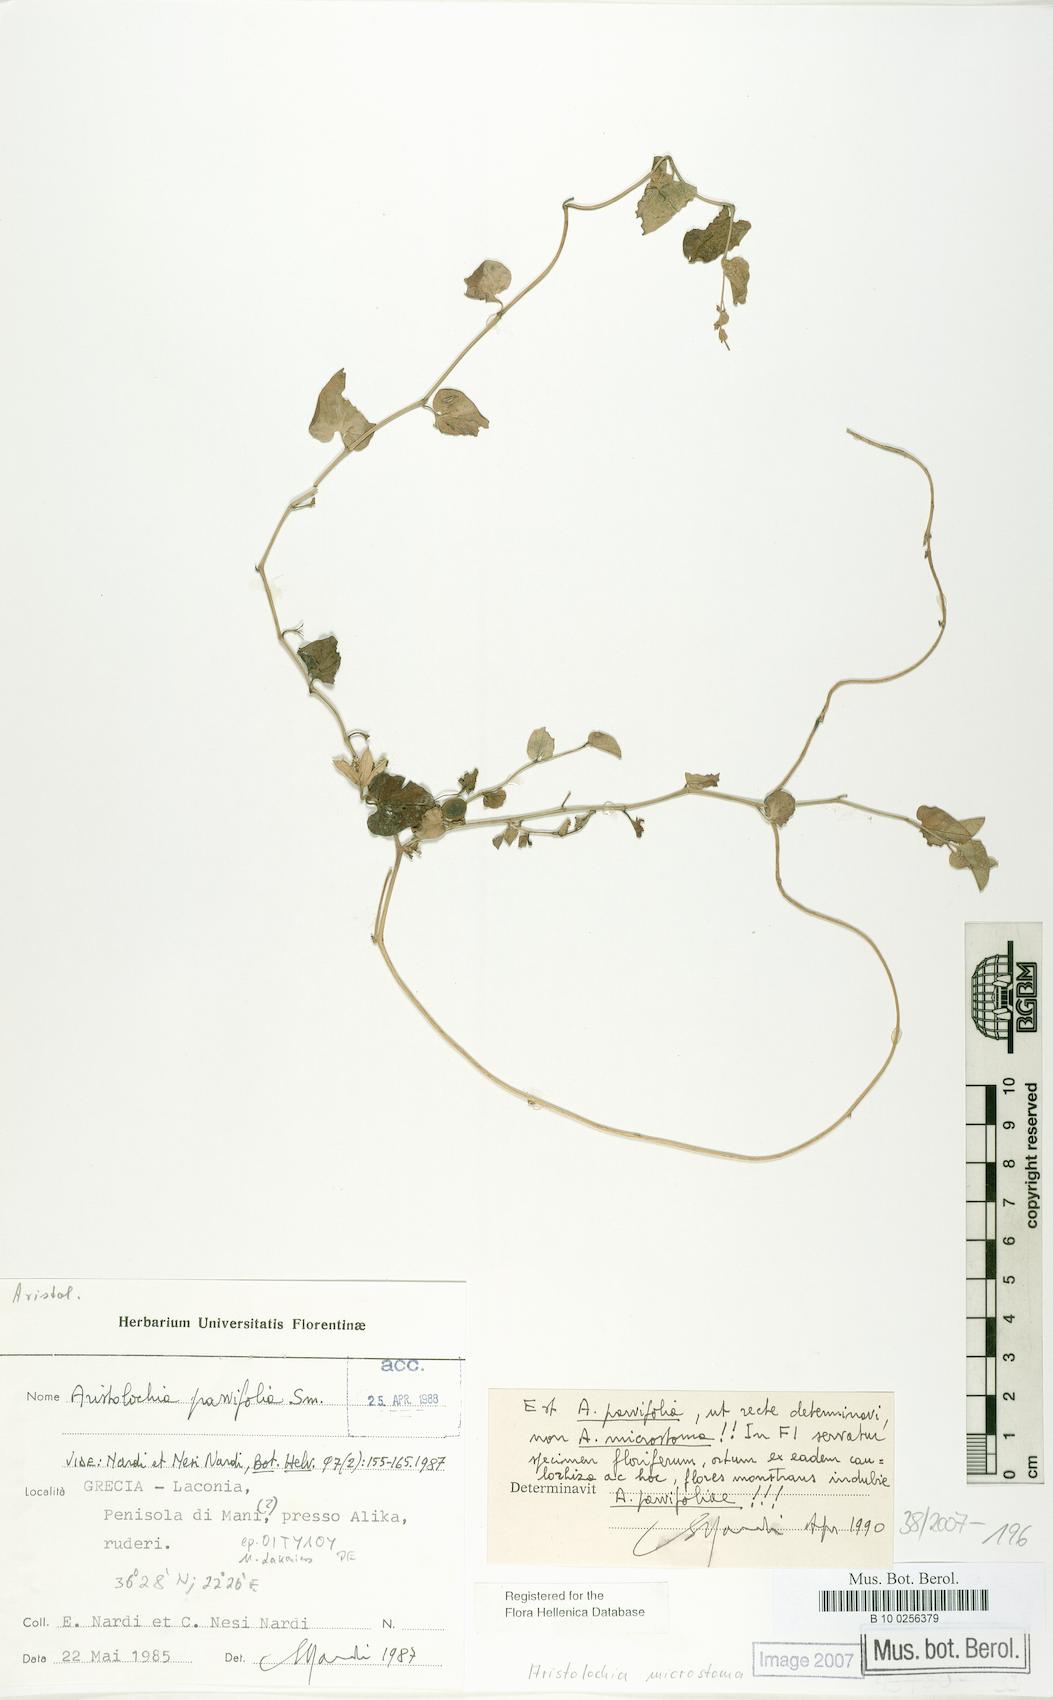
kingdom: Plantae
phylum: Tracheophyta
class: Magnoliopsida
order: Piperales
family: Aristolochiaceae
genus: Aristolochia
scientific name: Aristolochia microstoma
